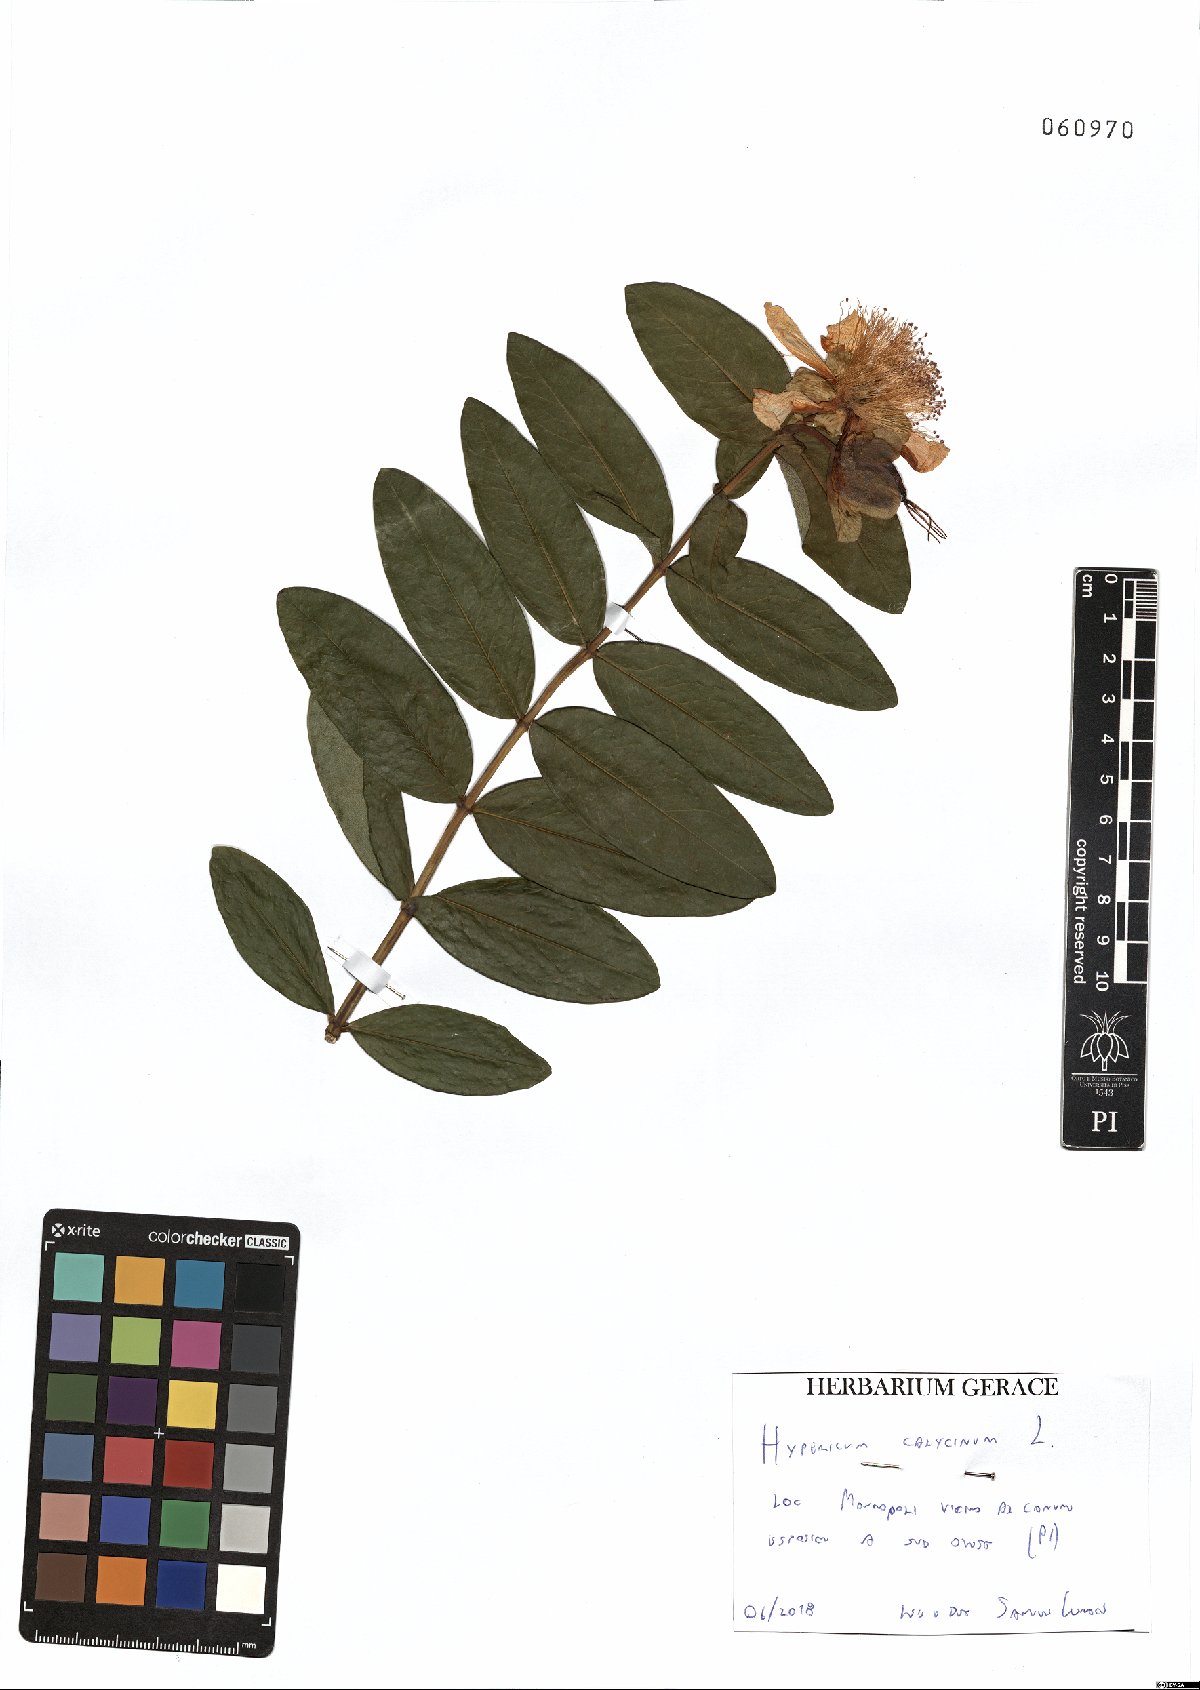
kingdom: Plantae
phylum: Tracheophyta
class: Magnoliopsida
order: Malpighiales
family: Hypericaceae
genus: Hypericum
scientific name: Hypericum calycinum
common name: Rose-of-sharon
